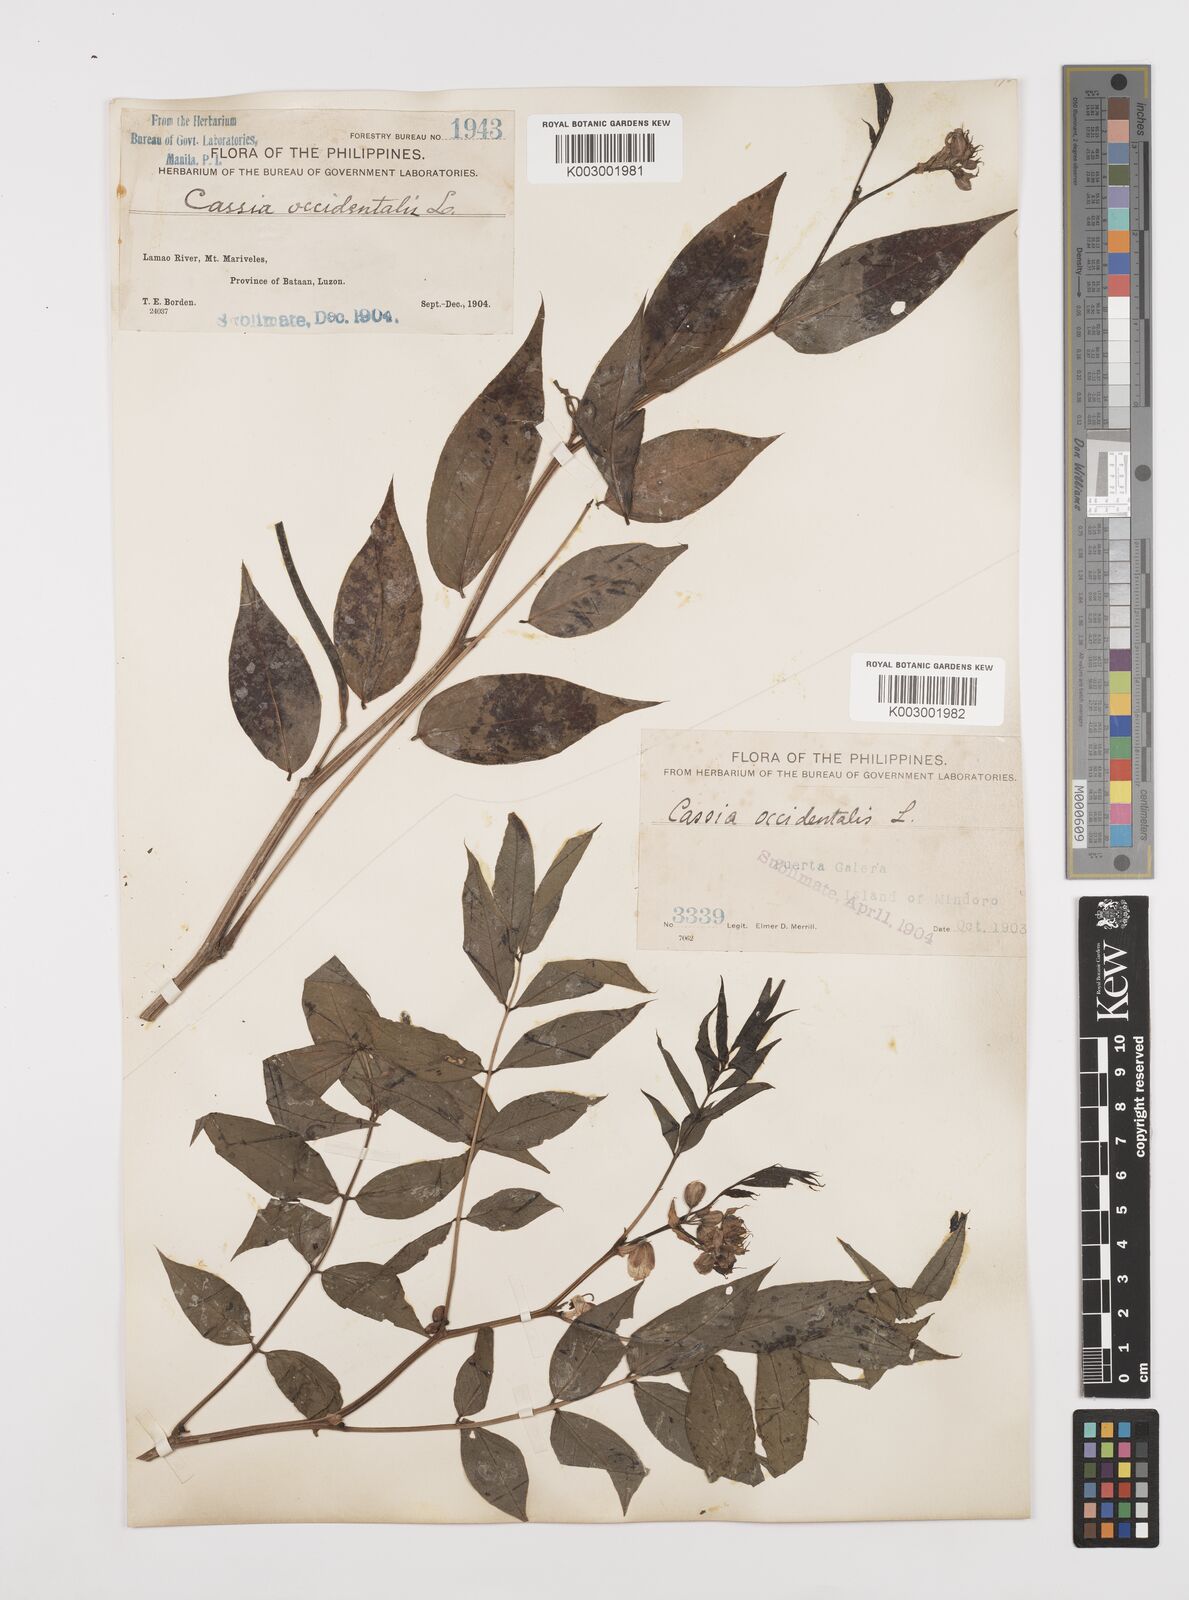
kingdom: Plantae
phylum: Tracheophyta
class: Magnoliopsida
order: Fabales
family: Fabaceae
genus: Senna
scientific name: Senna occidentalis
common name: Septicweed
